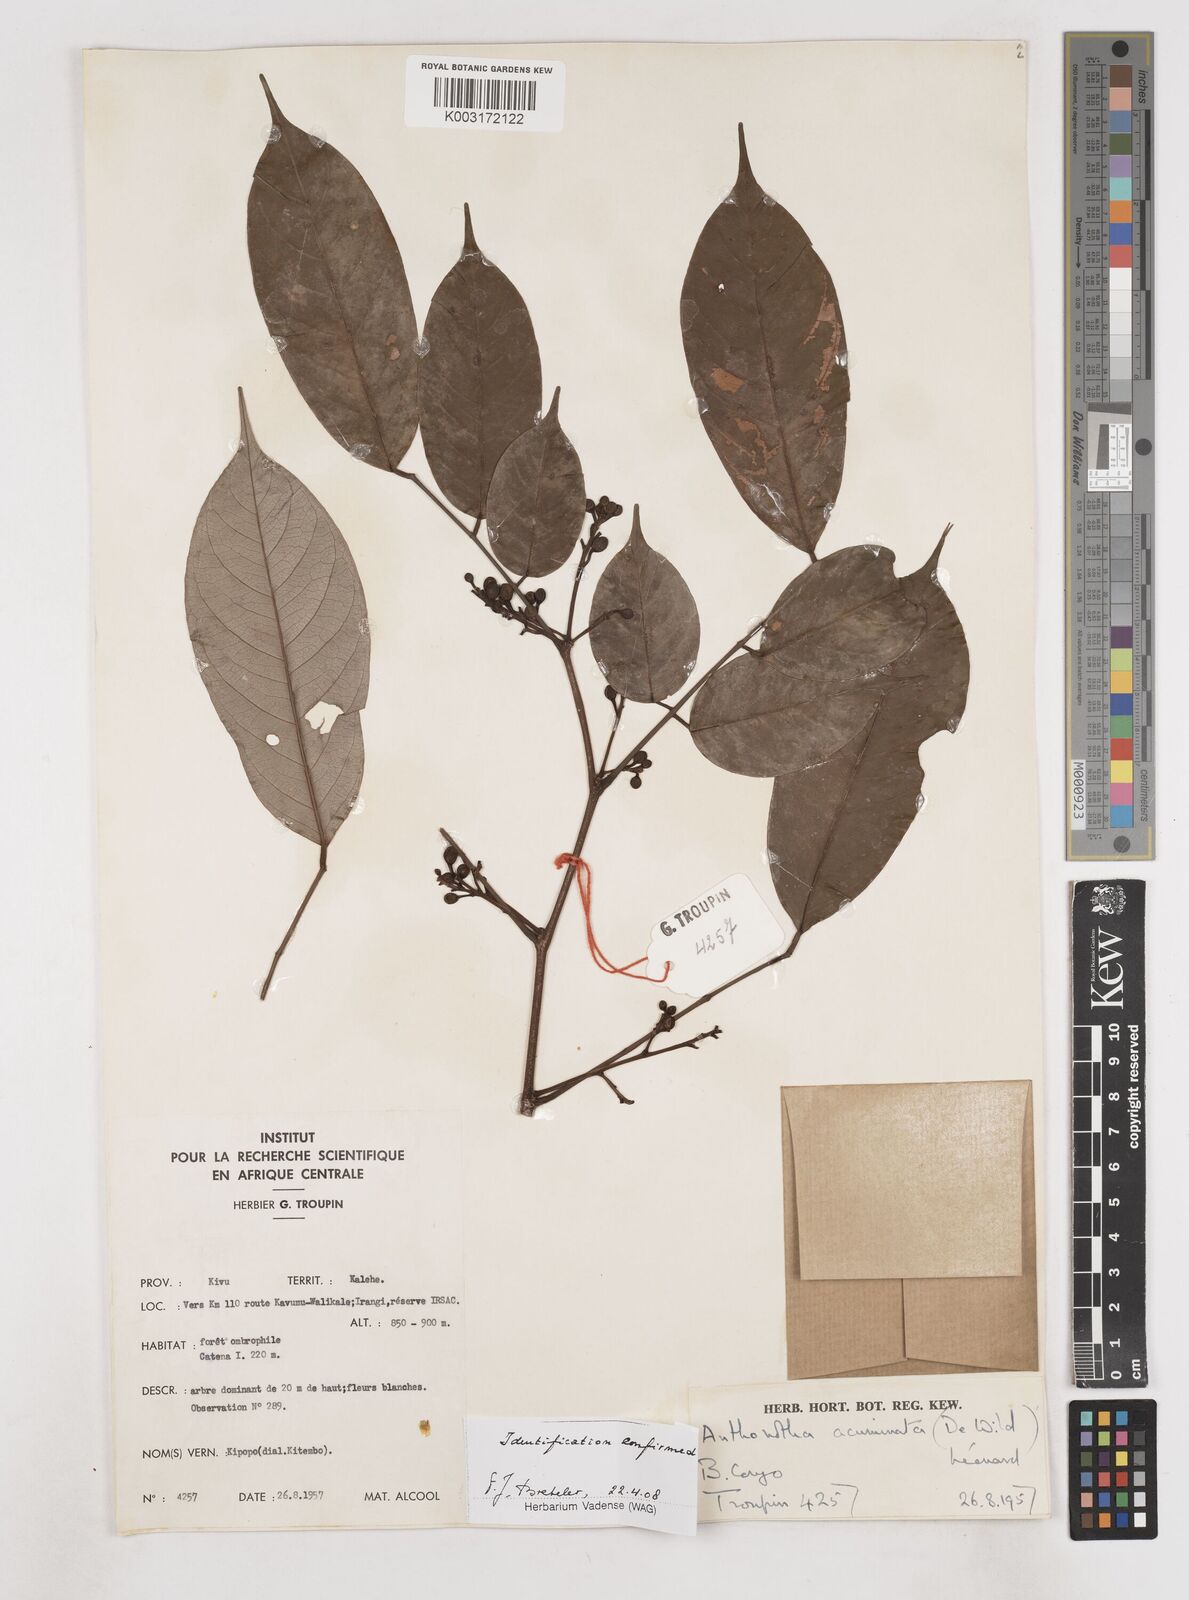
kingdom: Plantae
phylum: Tracheophyta
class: Magnoliopsida
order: Fabales
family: Fabaceae
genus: Anthonotha
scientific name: Anthonotha acuminata
